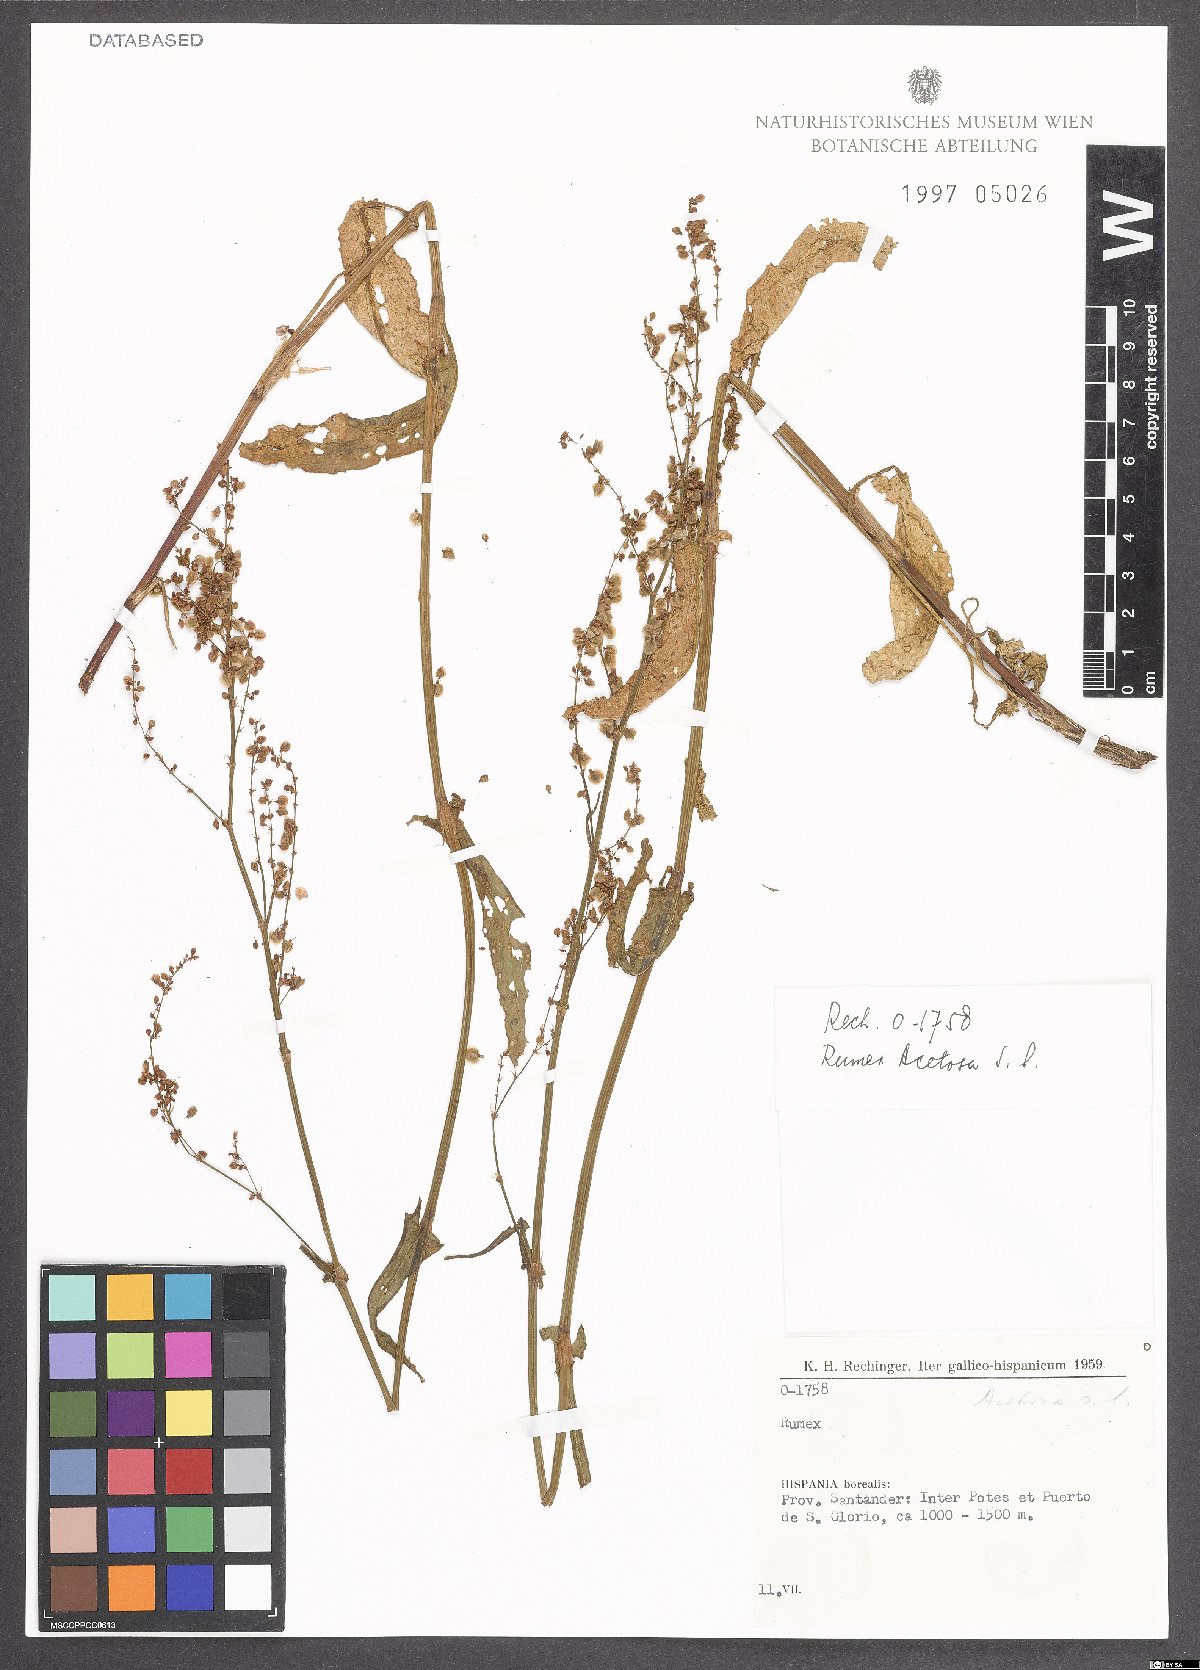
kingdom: Plantae
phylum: Tracheophyta
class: Magnoliopsida
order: Caryophyllales
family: Polygonaceae
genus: Rumex
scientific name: Rumex acetosa
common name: Garden sorrel
